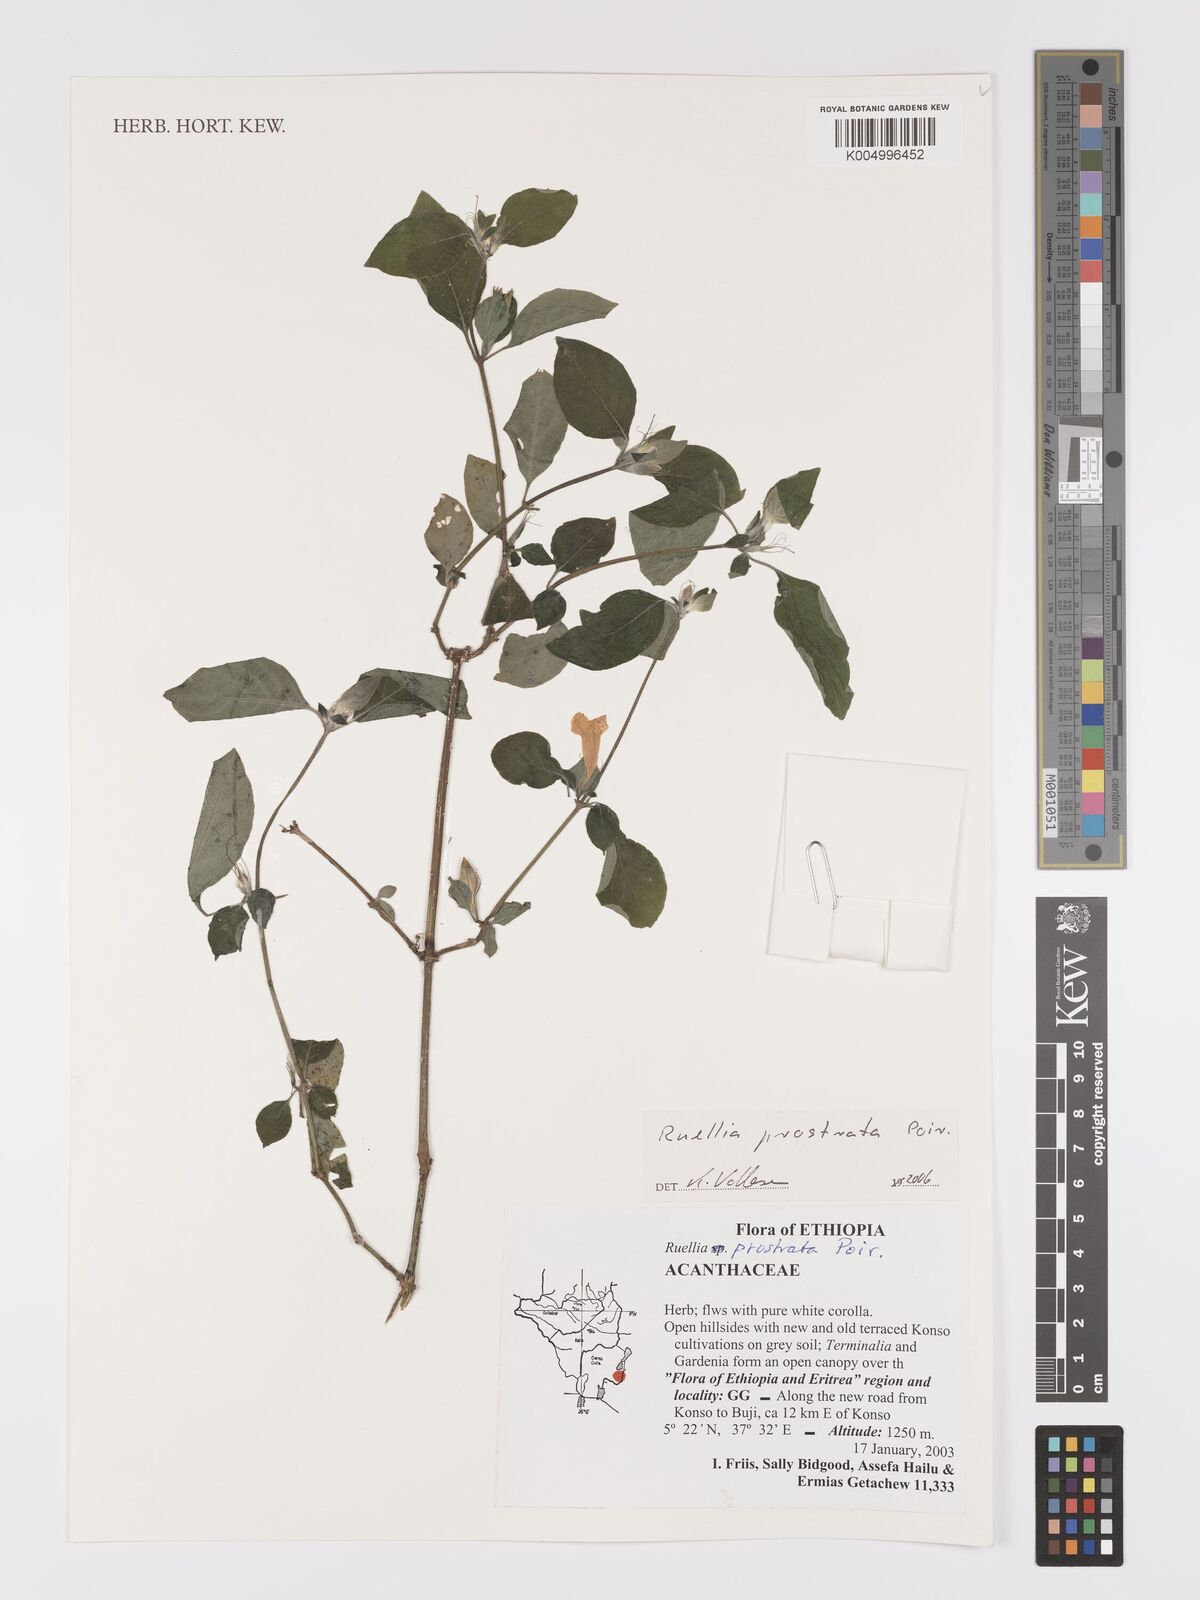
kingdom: Plantae
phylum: Tracheophyta
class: Magnoliopsida
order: Lamiales
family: Acanthaceae
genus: Ruellia
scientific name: Ruellia
